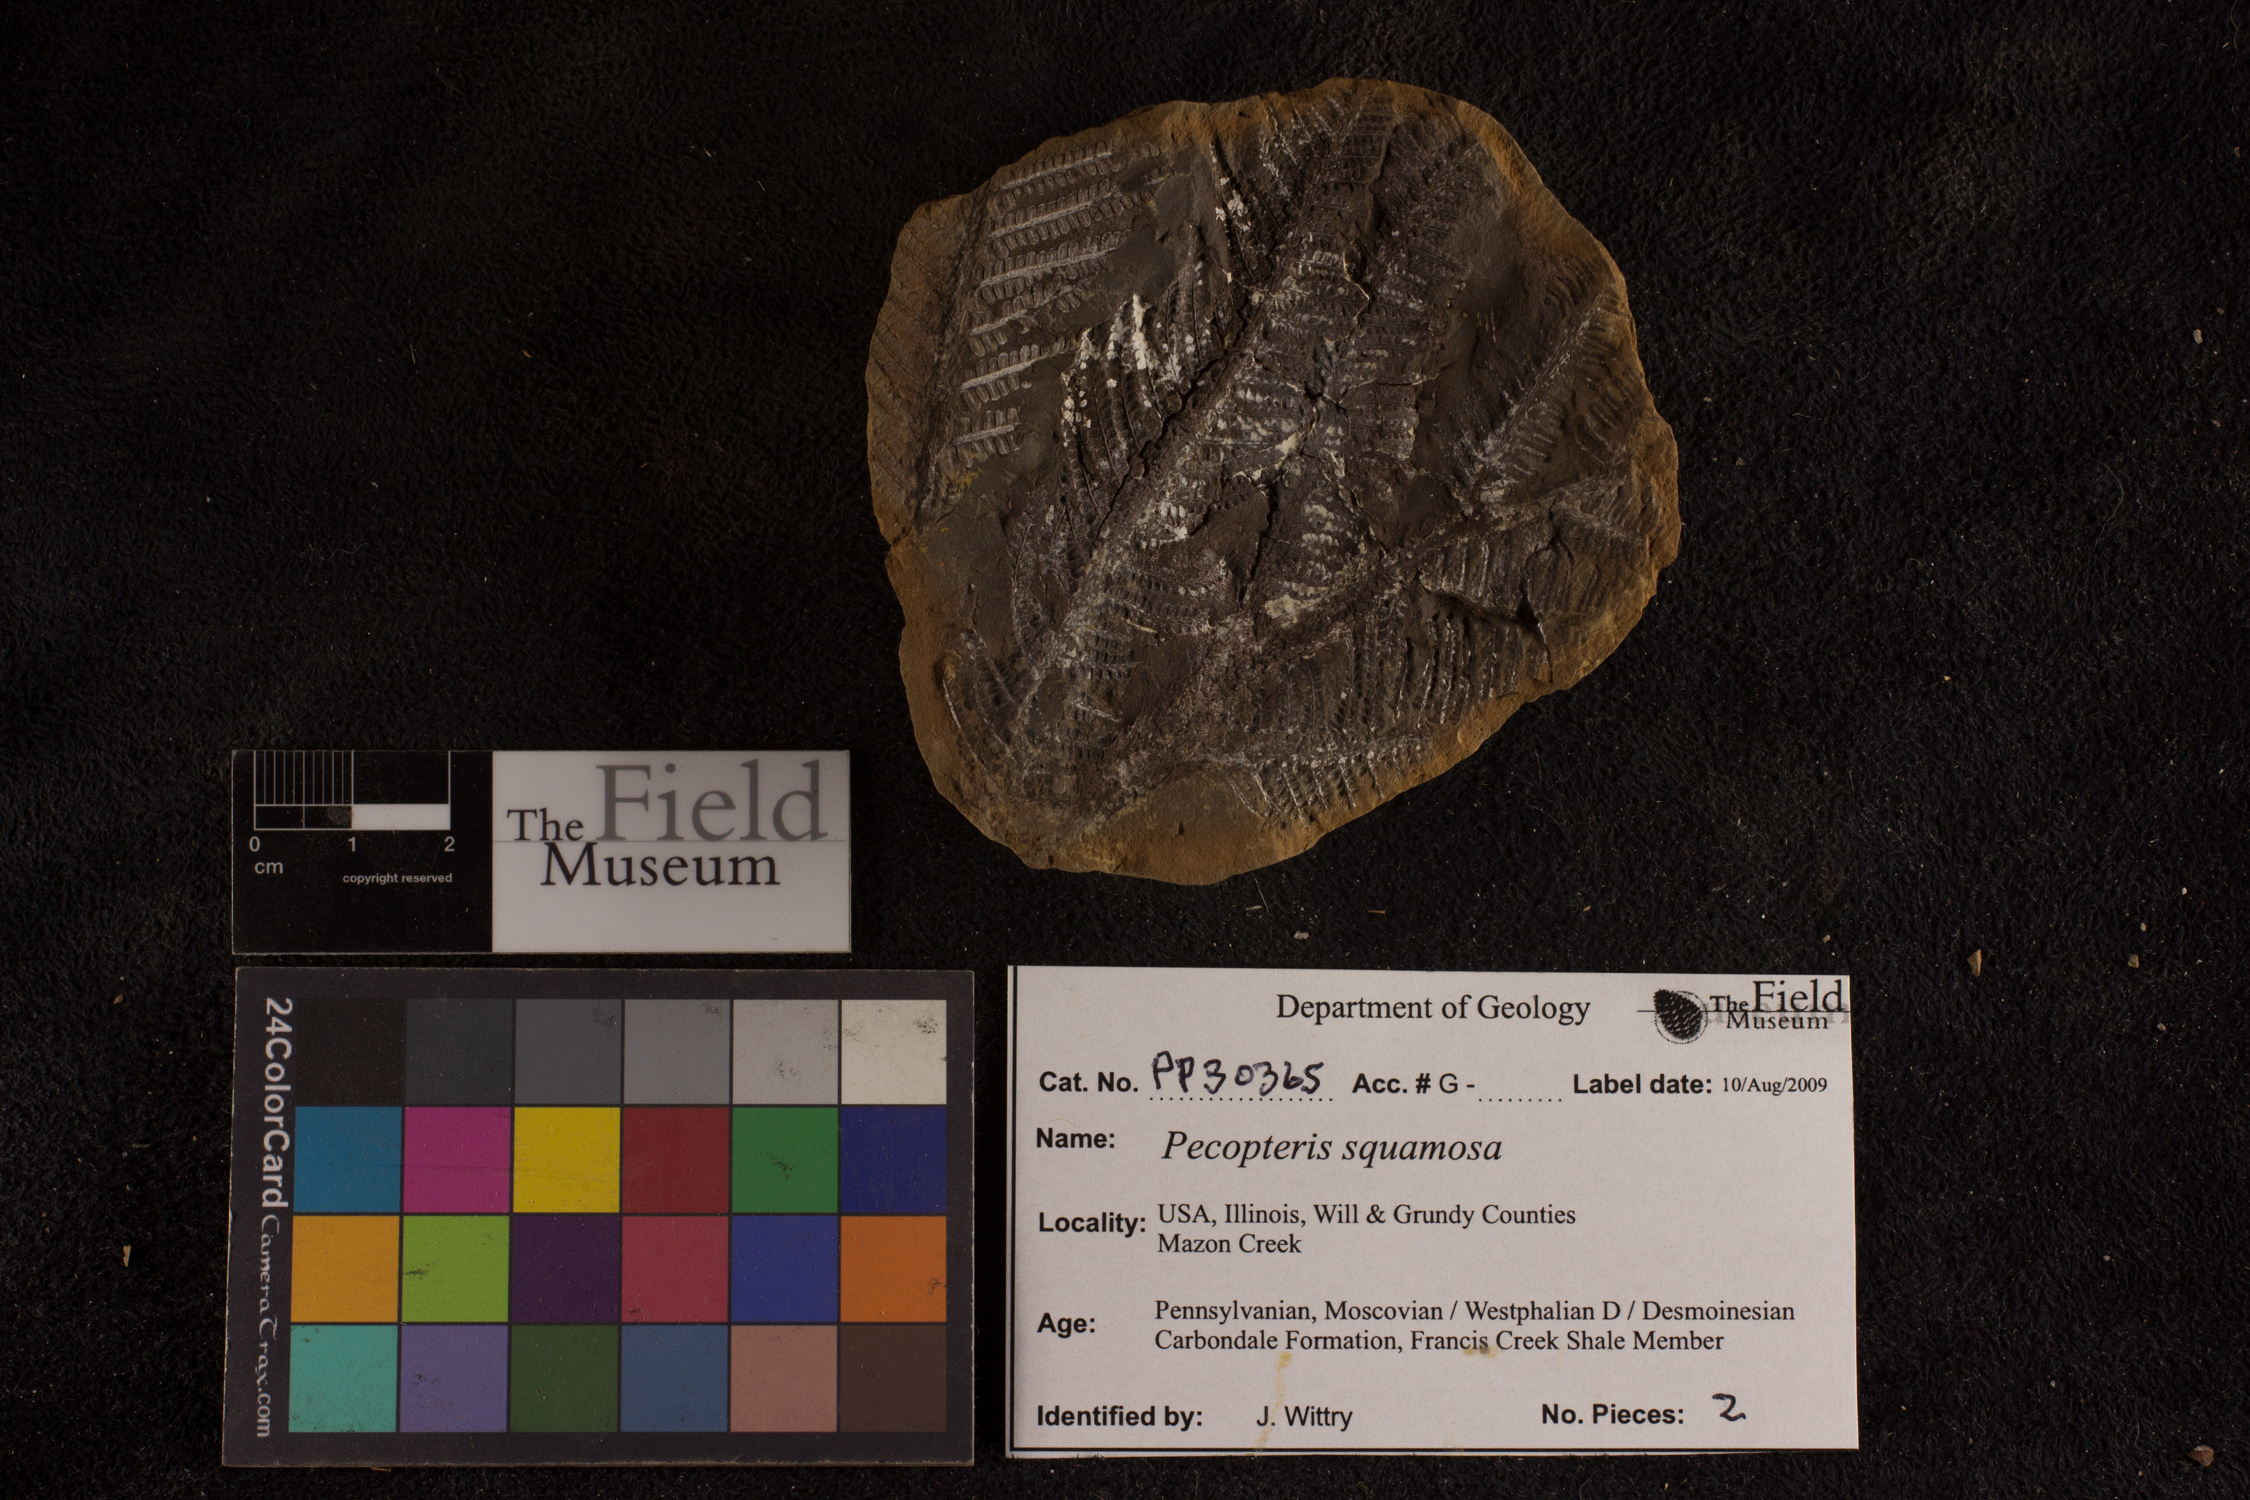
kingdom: Plantae
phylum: Tracheophyta
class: Polypodiopsida
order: Marattiales
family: Asterothecaceae
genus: Pecopteris
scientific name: Pecopteris
